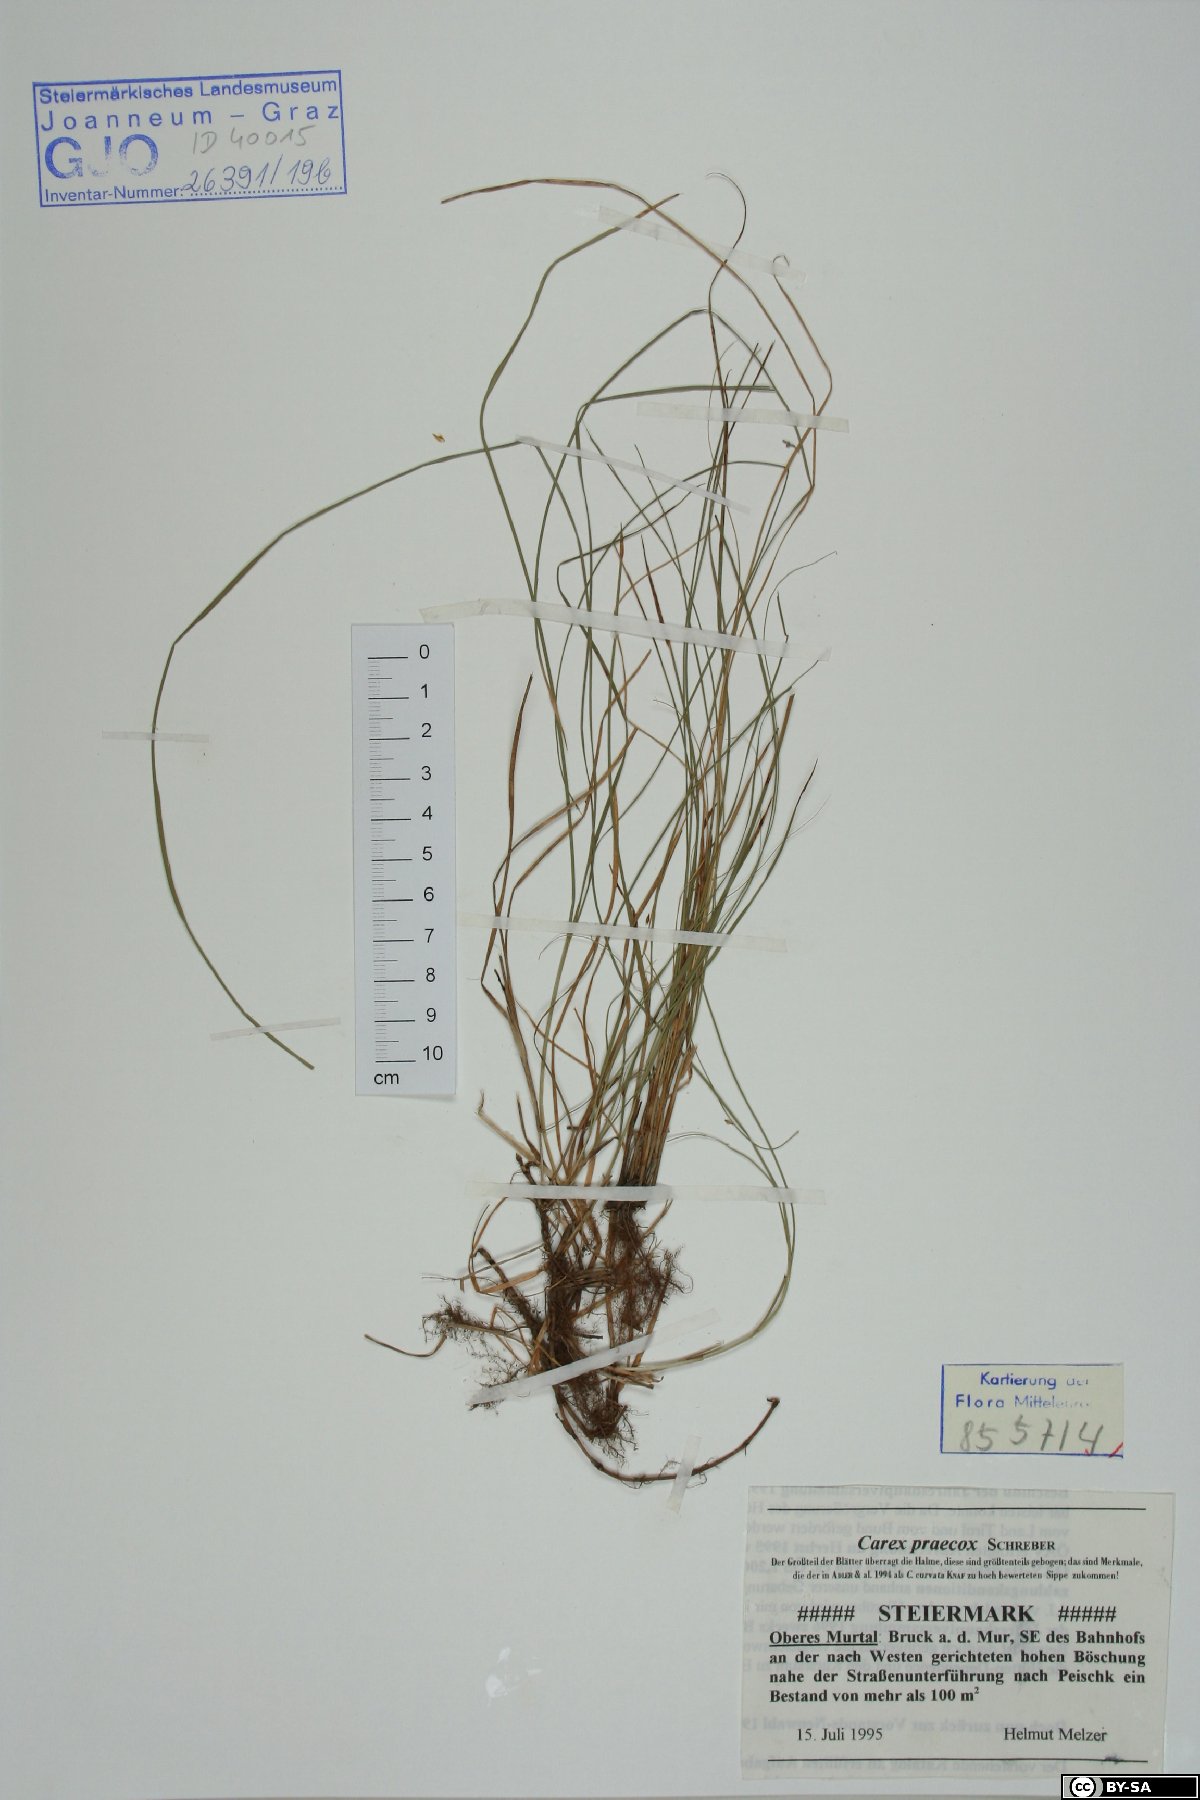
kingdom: Plantae
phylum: Tracheophyta
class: Liliopsida
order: Poales
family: Cyperaceae
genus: Carex
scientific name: Carex praecox
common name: Early sedge
